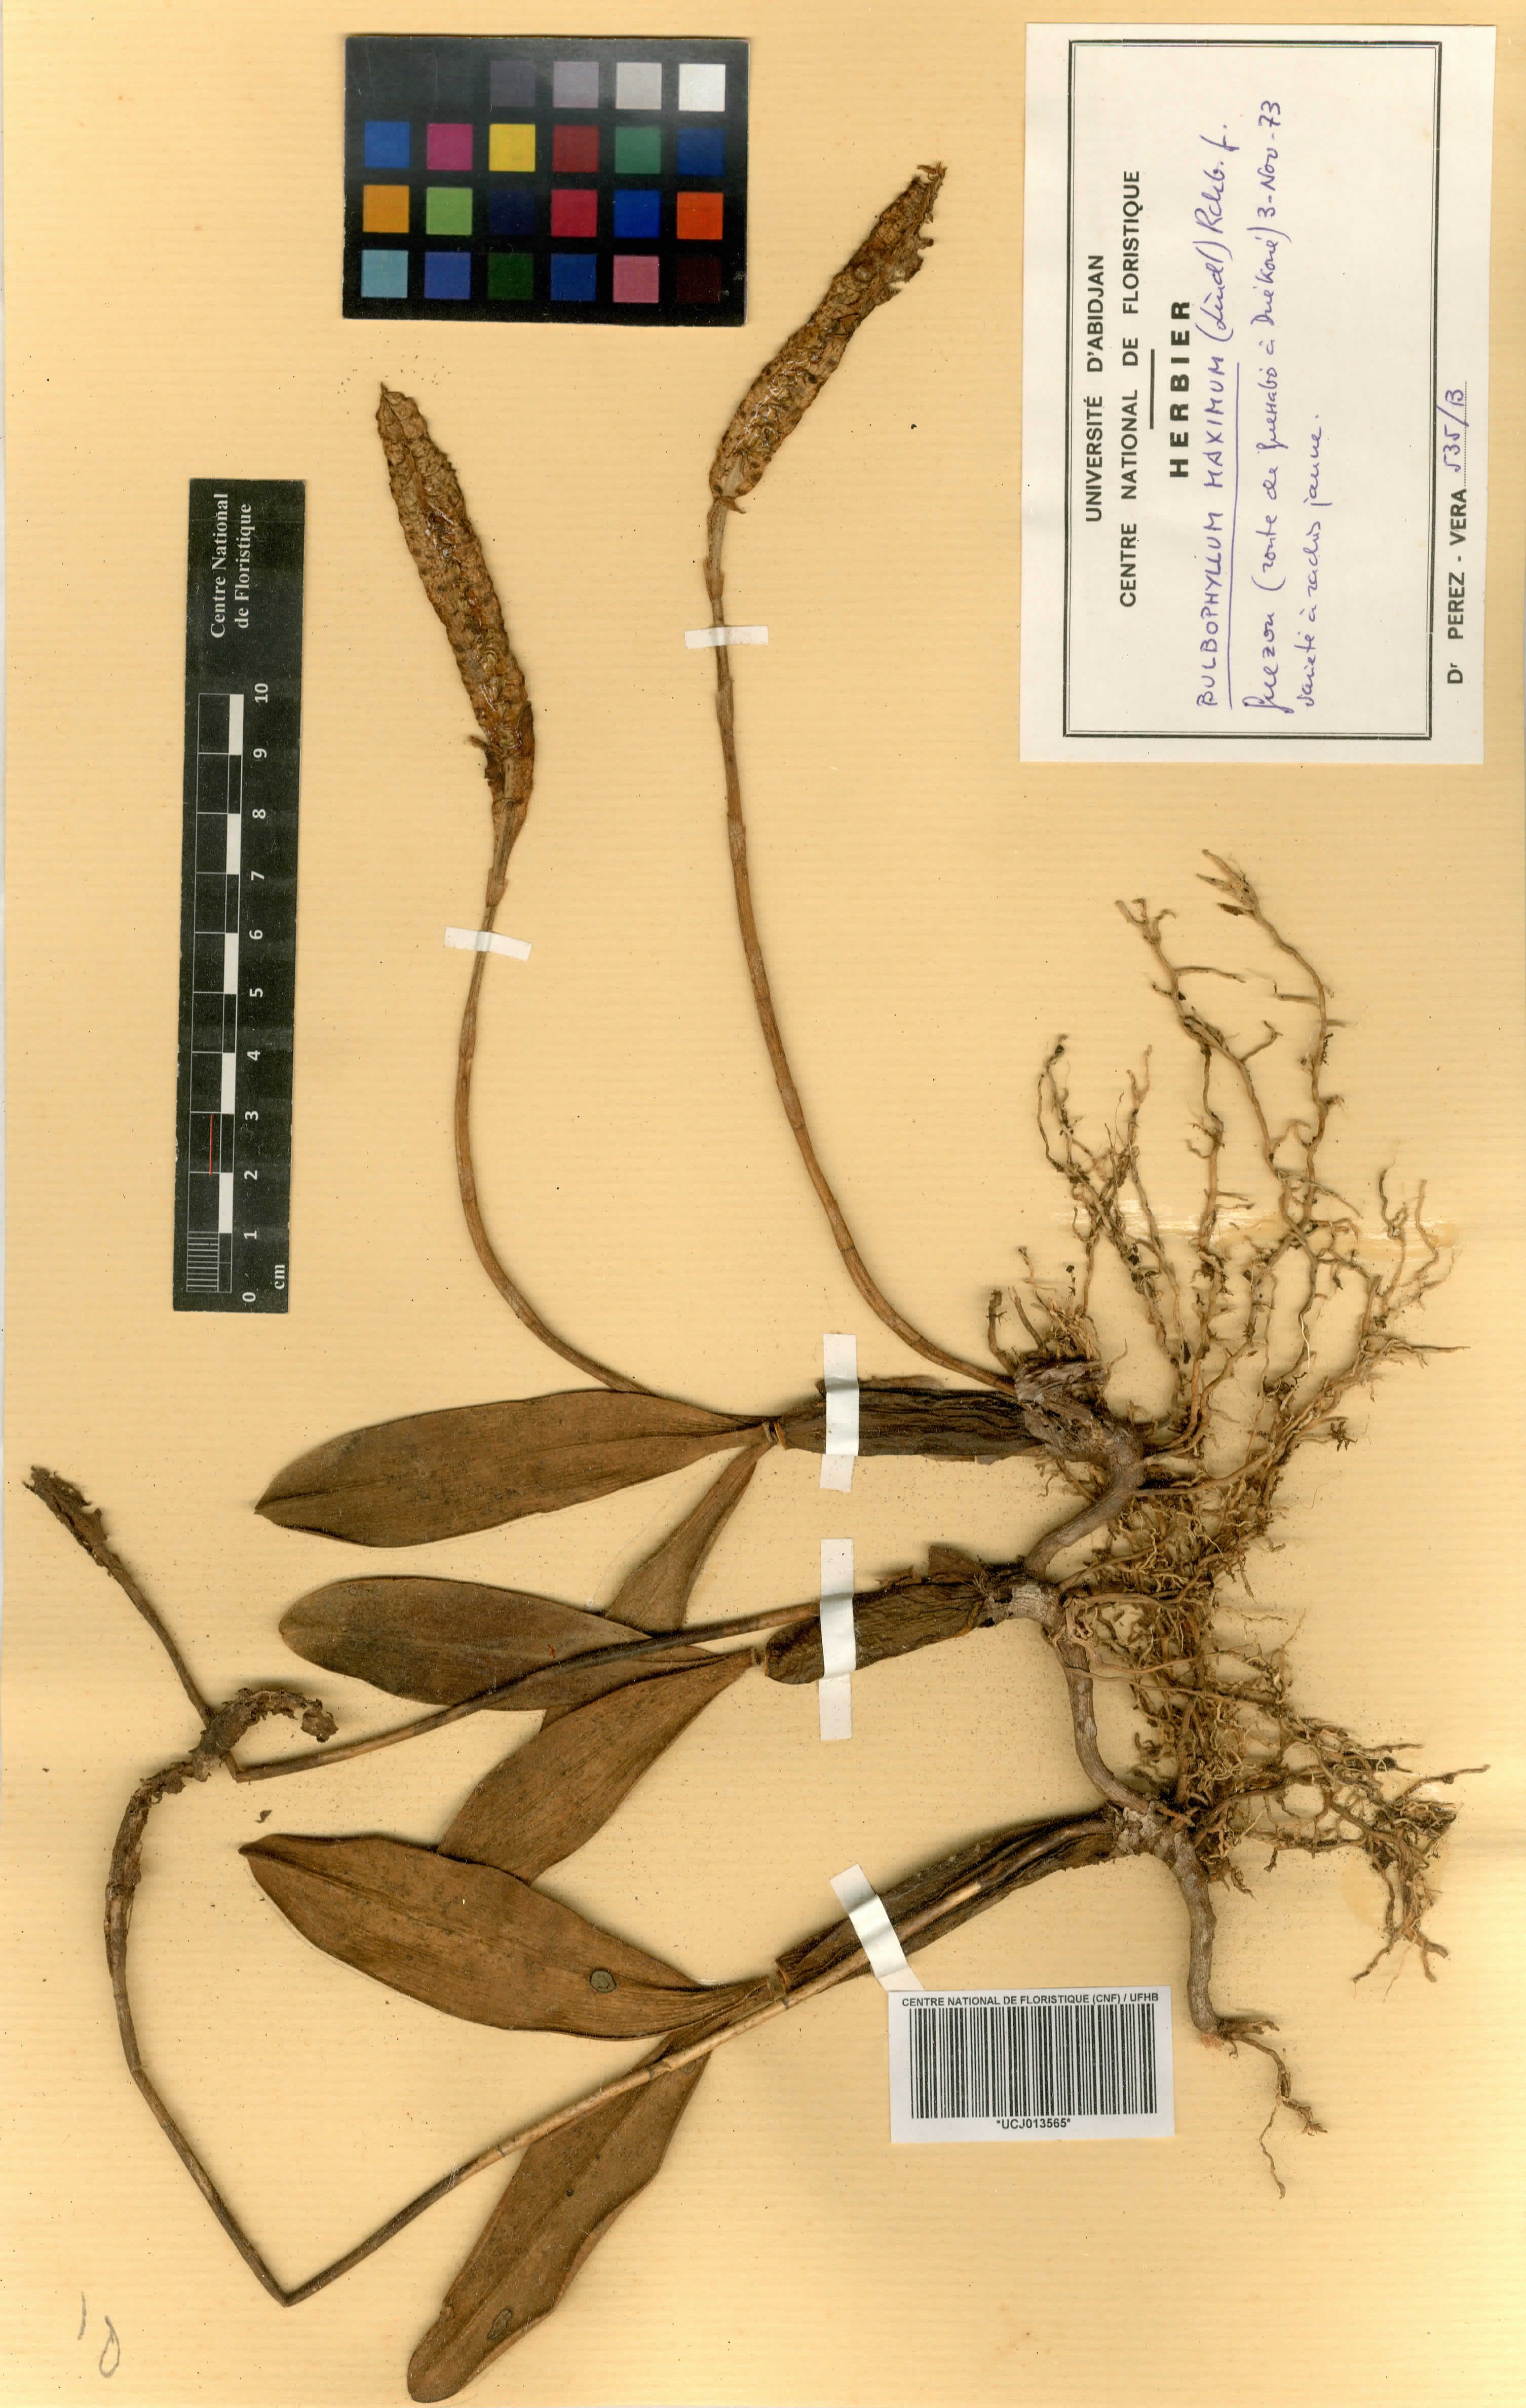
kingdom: Plantae
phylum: Tracheophyta
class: Liliopsida
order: Asparagales
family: Orchidaceae
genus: Bulbophyllum
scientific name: Bulbophyllum maximum
